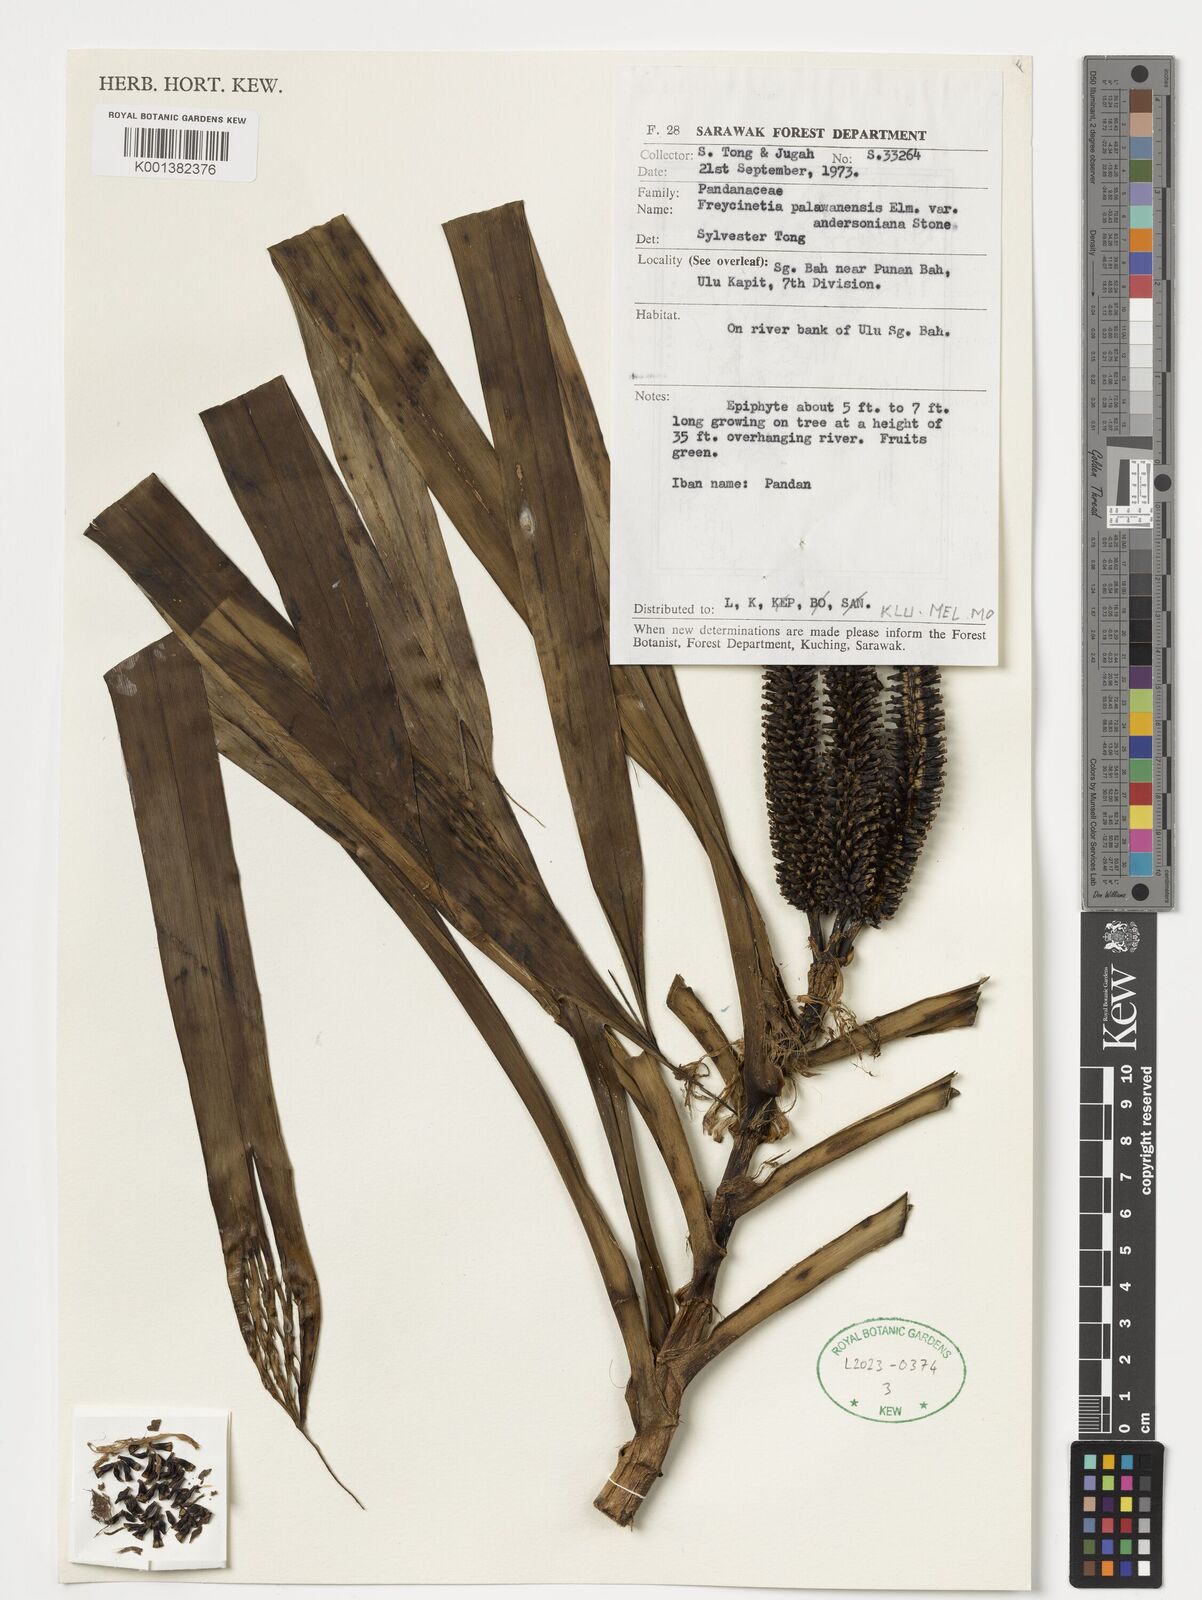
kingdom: Plantae
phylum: Tracheophyta
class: Liliopsida
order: Pandanales
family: Pandanaceae
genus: Freycinetia
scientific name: Freycinetia palawanensis
